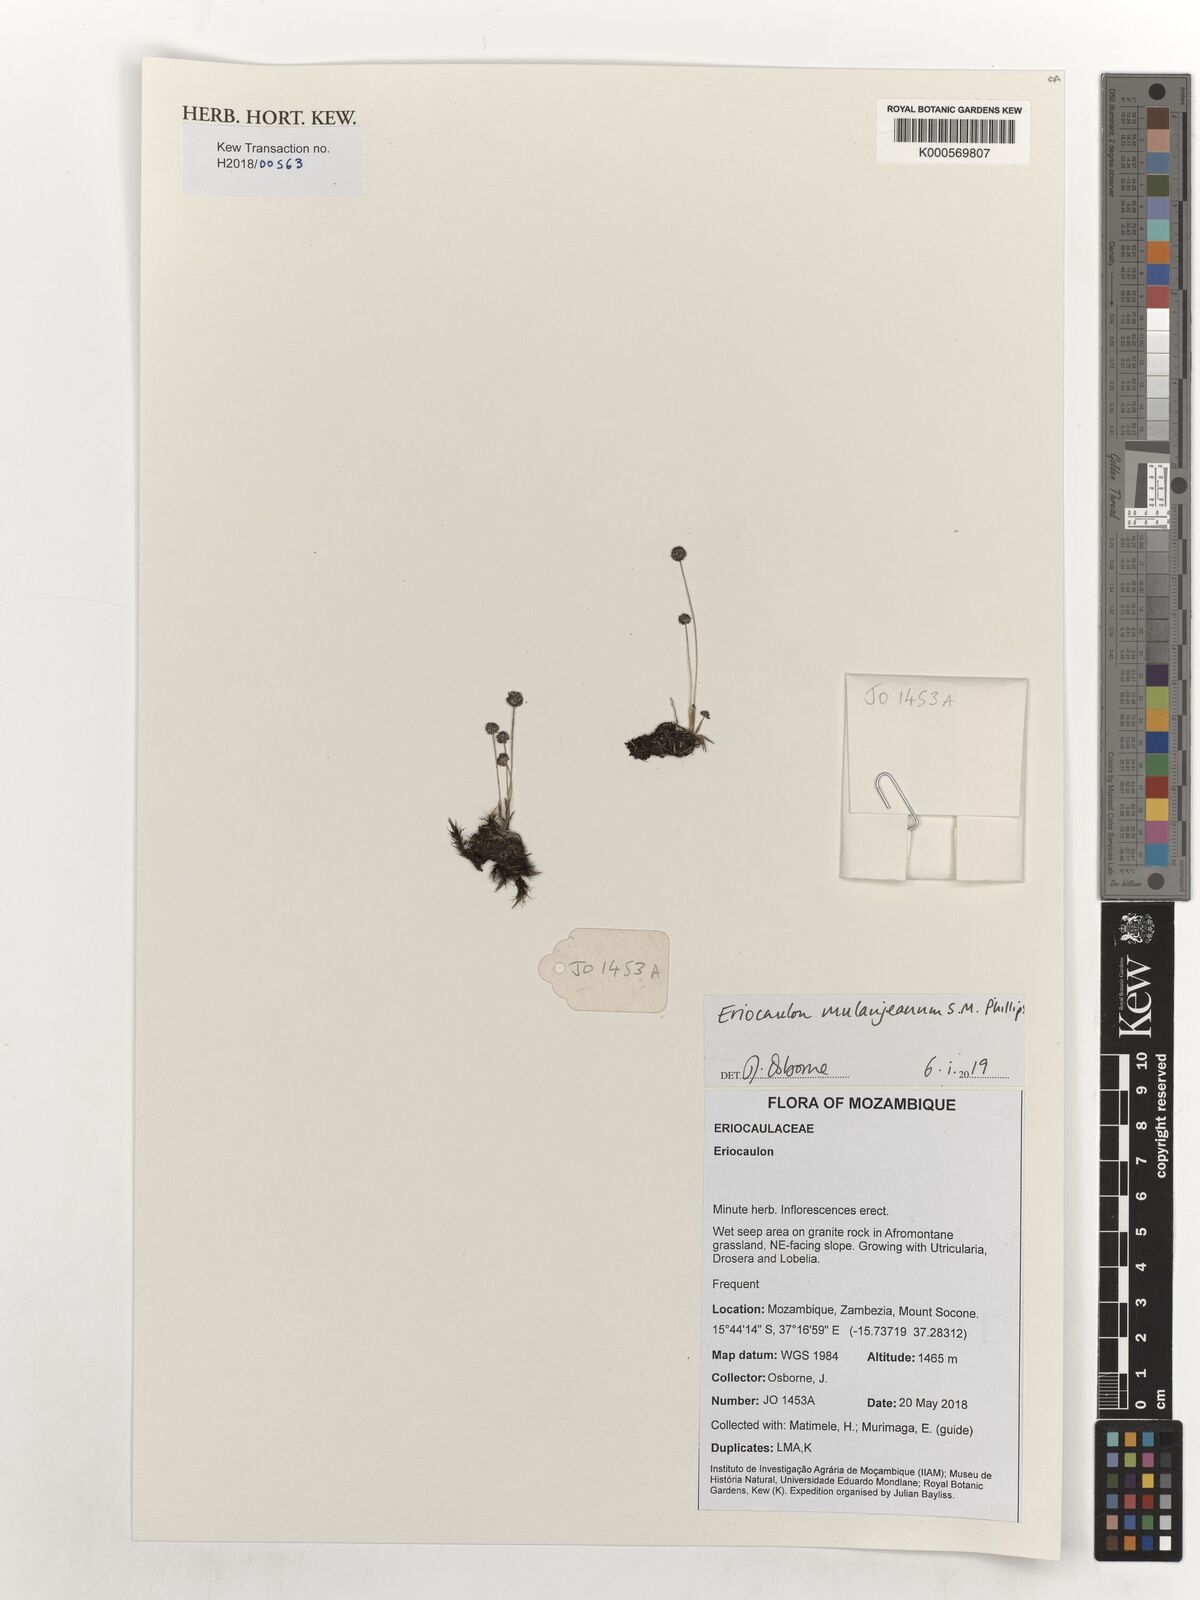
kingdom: Plantae
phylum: Tracheophyta
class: Liliopsida
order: Poales
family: Eriocaulaceae
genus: Eriocaulon
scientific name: Eriocaulon mulanjeanum
